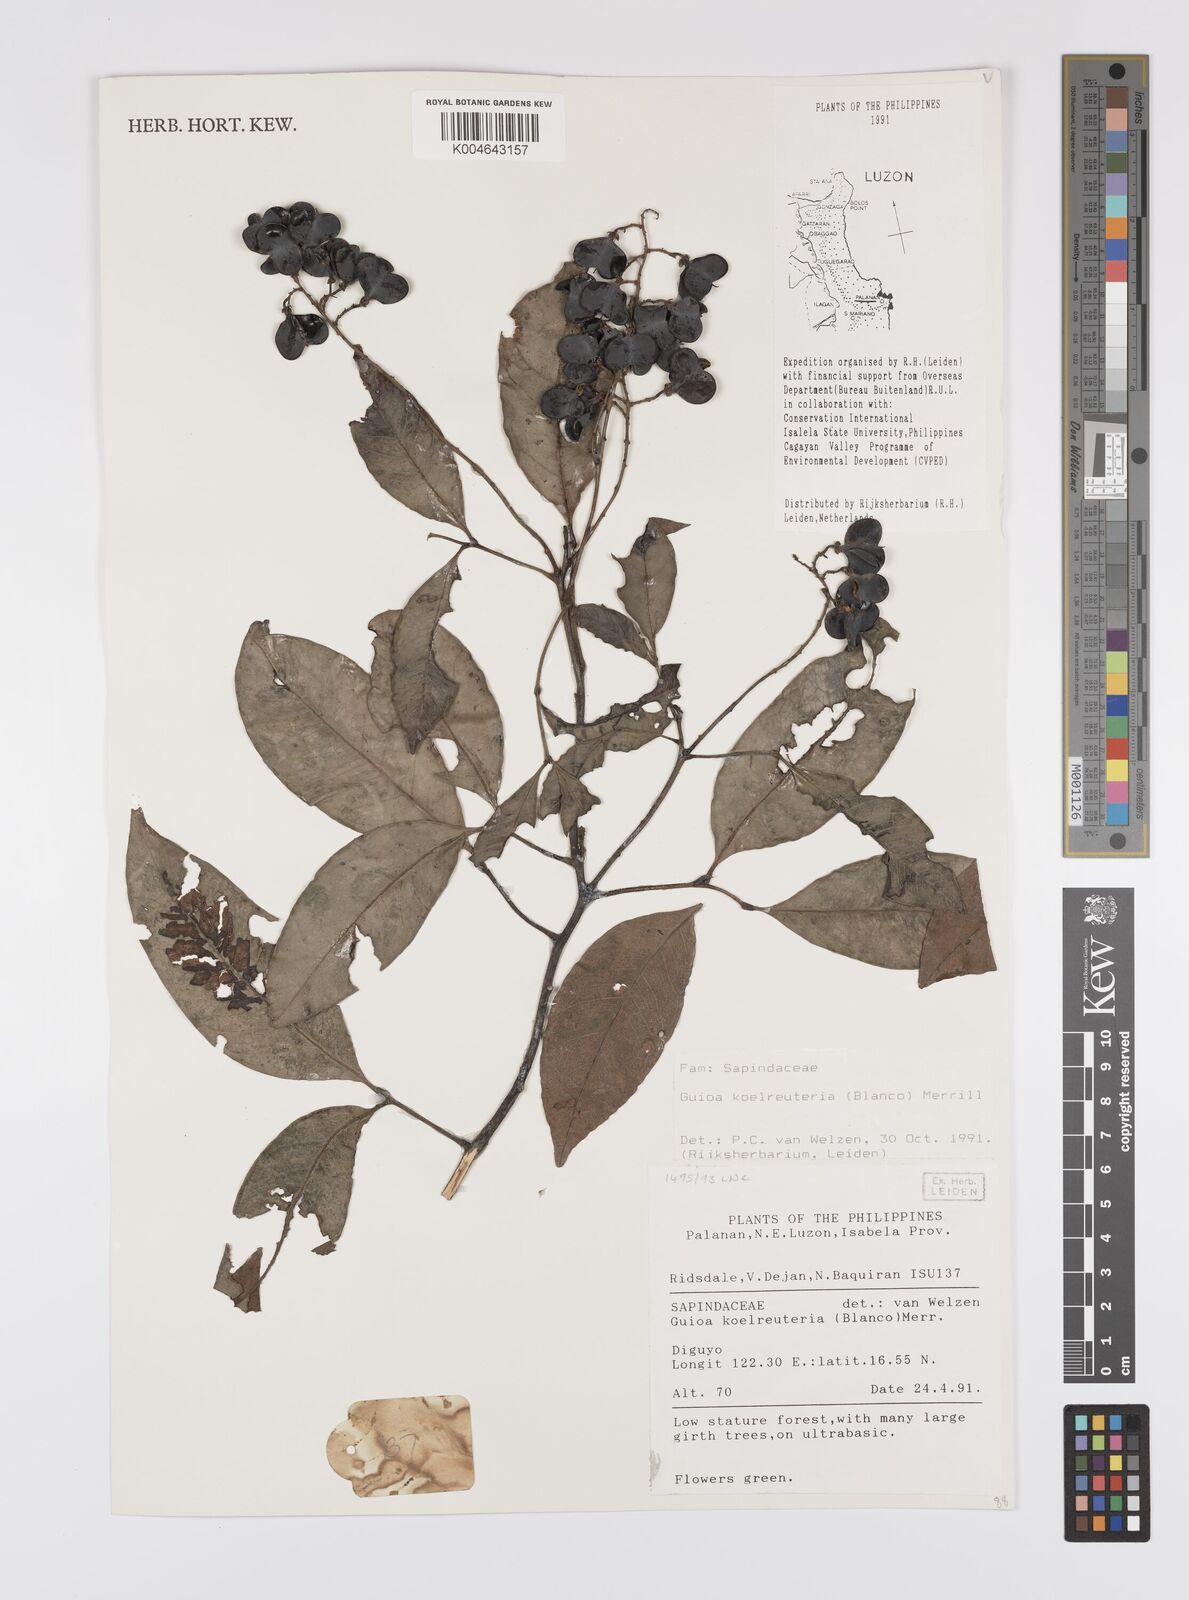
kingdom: Plantae
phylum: Tracheophyta
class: Magnoliopsida
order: Sapindales
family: Sapindaceae
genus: Guioa
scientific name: Guioa koelreuteria
